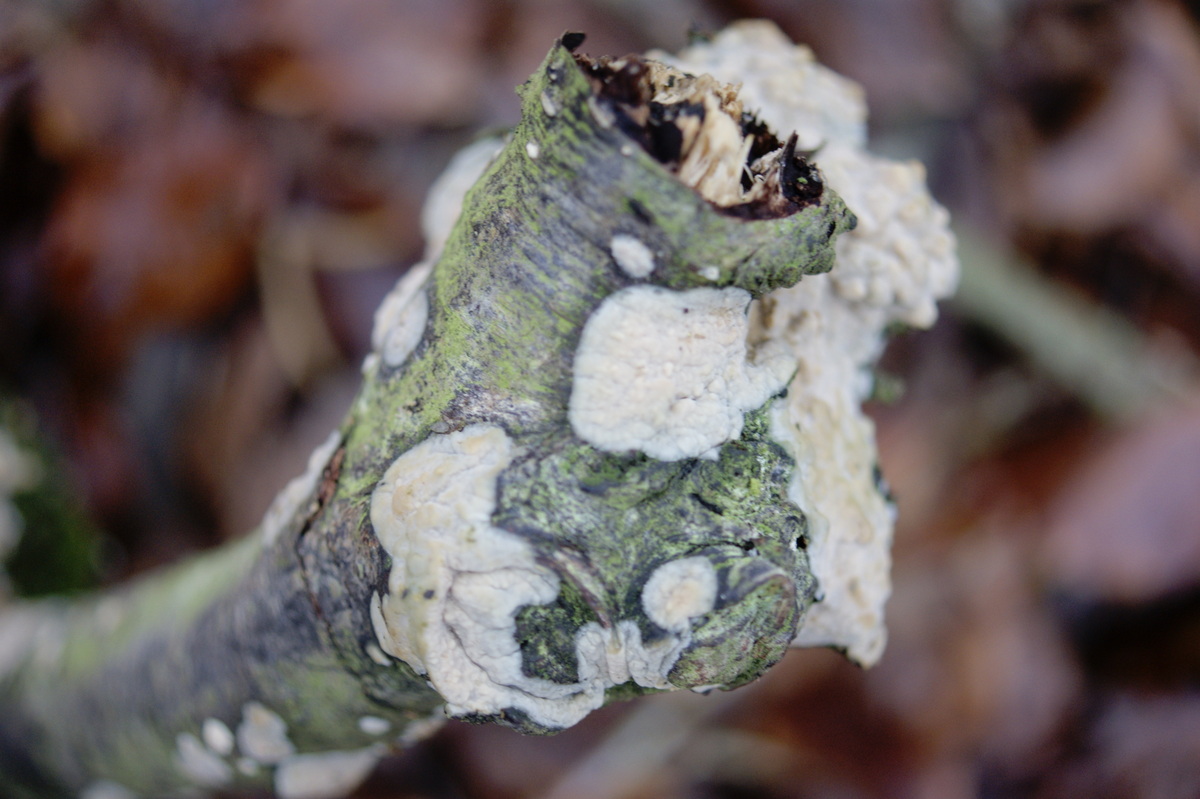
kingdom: Fungi
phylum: Basidiomycota
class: Agaricomycetes
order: Agaricales
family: Radulomycetaceae
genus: Radulomyces
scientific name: Radulomyces confluens
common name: glat naftalinskind
